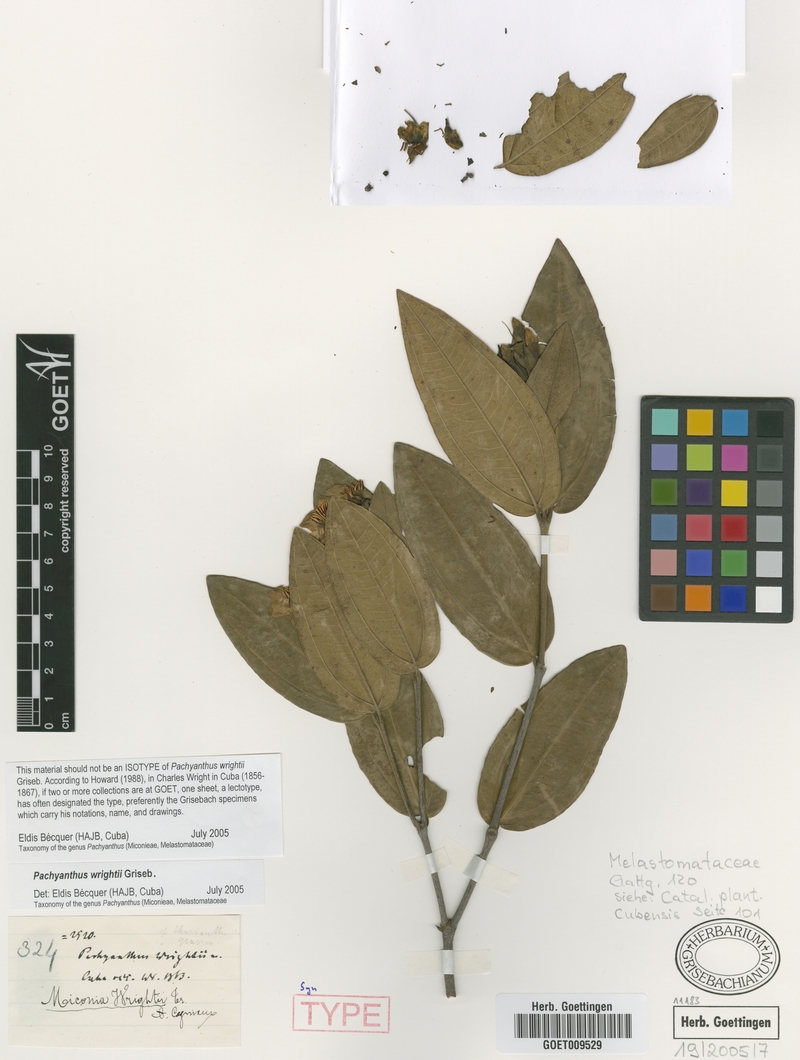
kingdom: Plantae
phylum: Tracheophyta
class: Magnoliopsida
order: Myrtales
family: Melastomataceae
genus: Miconia
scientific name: Miconia wrightii
